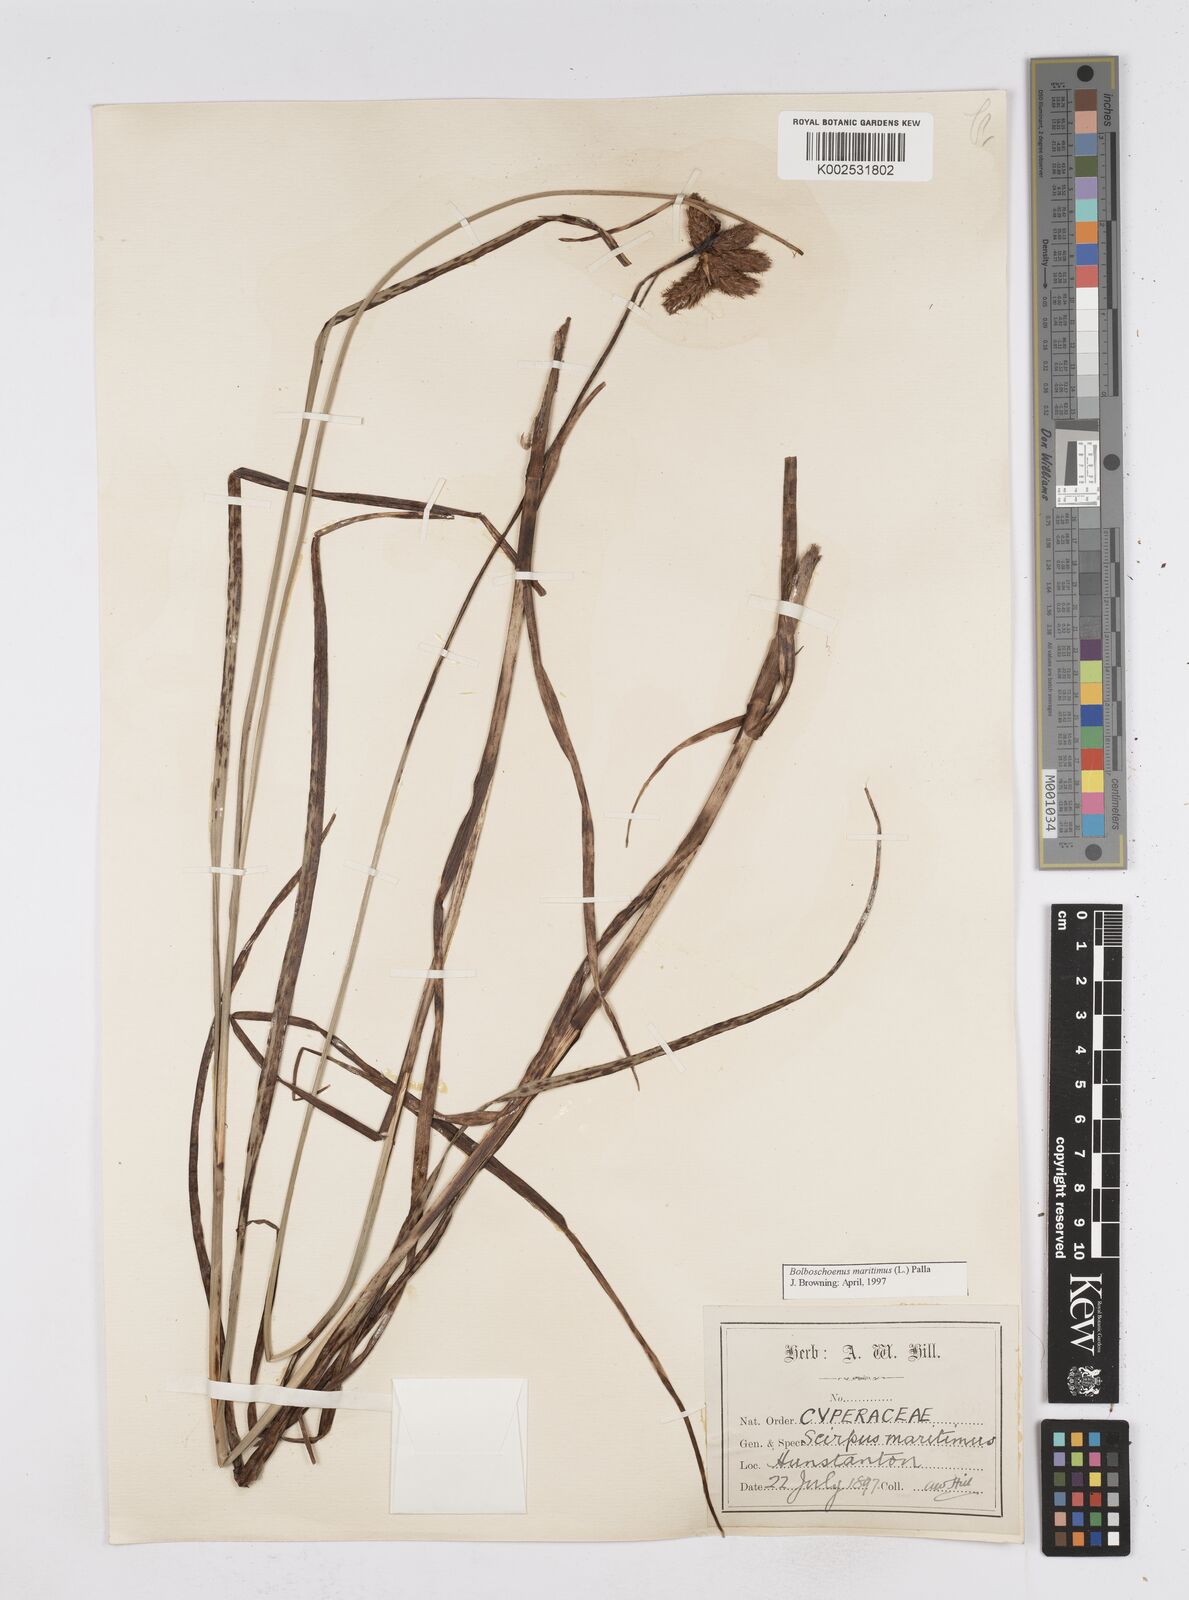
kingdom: Plantae
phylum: Tracheophyta
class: Liliopsida
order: Poales
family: Cyperaceae
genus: Bolboschoenus
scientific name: Bolboschoenus maritimus
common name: Sea club-rush
